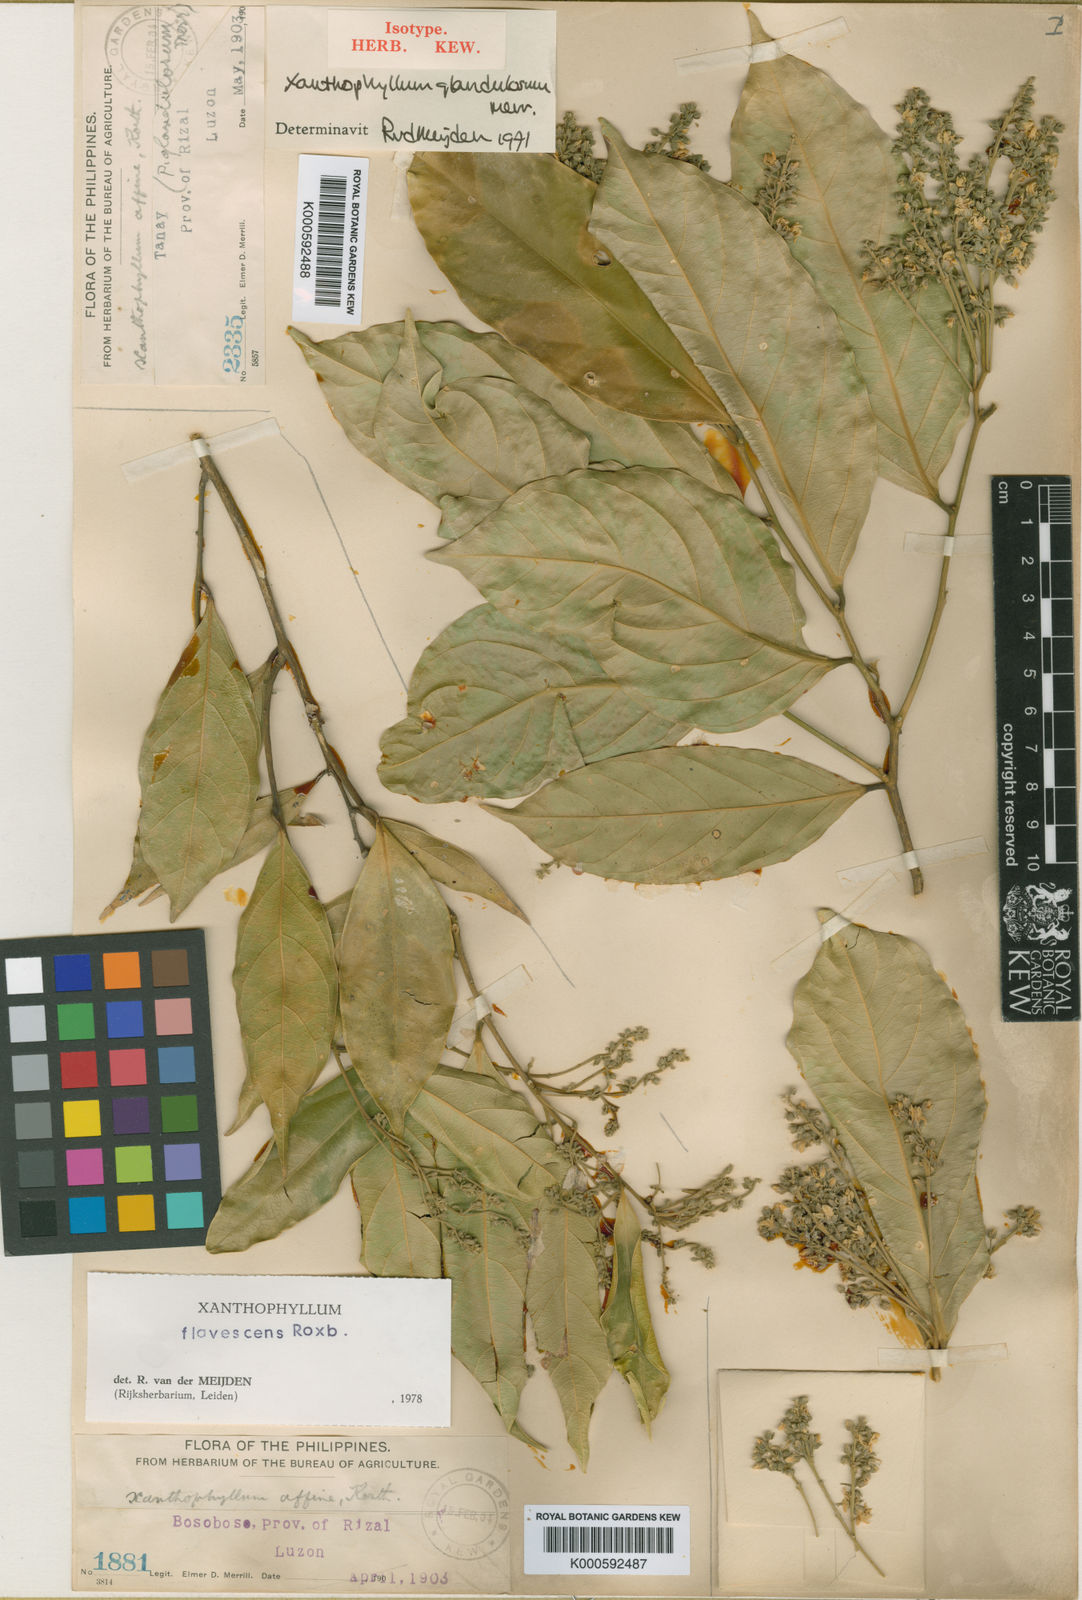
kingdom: Plantae
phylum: Tracheophyta
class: Magnoliopsida
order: Fabales
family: Polygalaceae
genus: Xanthophyllum
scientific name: Xanthophyllum flavescens
